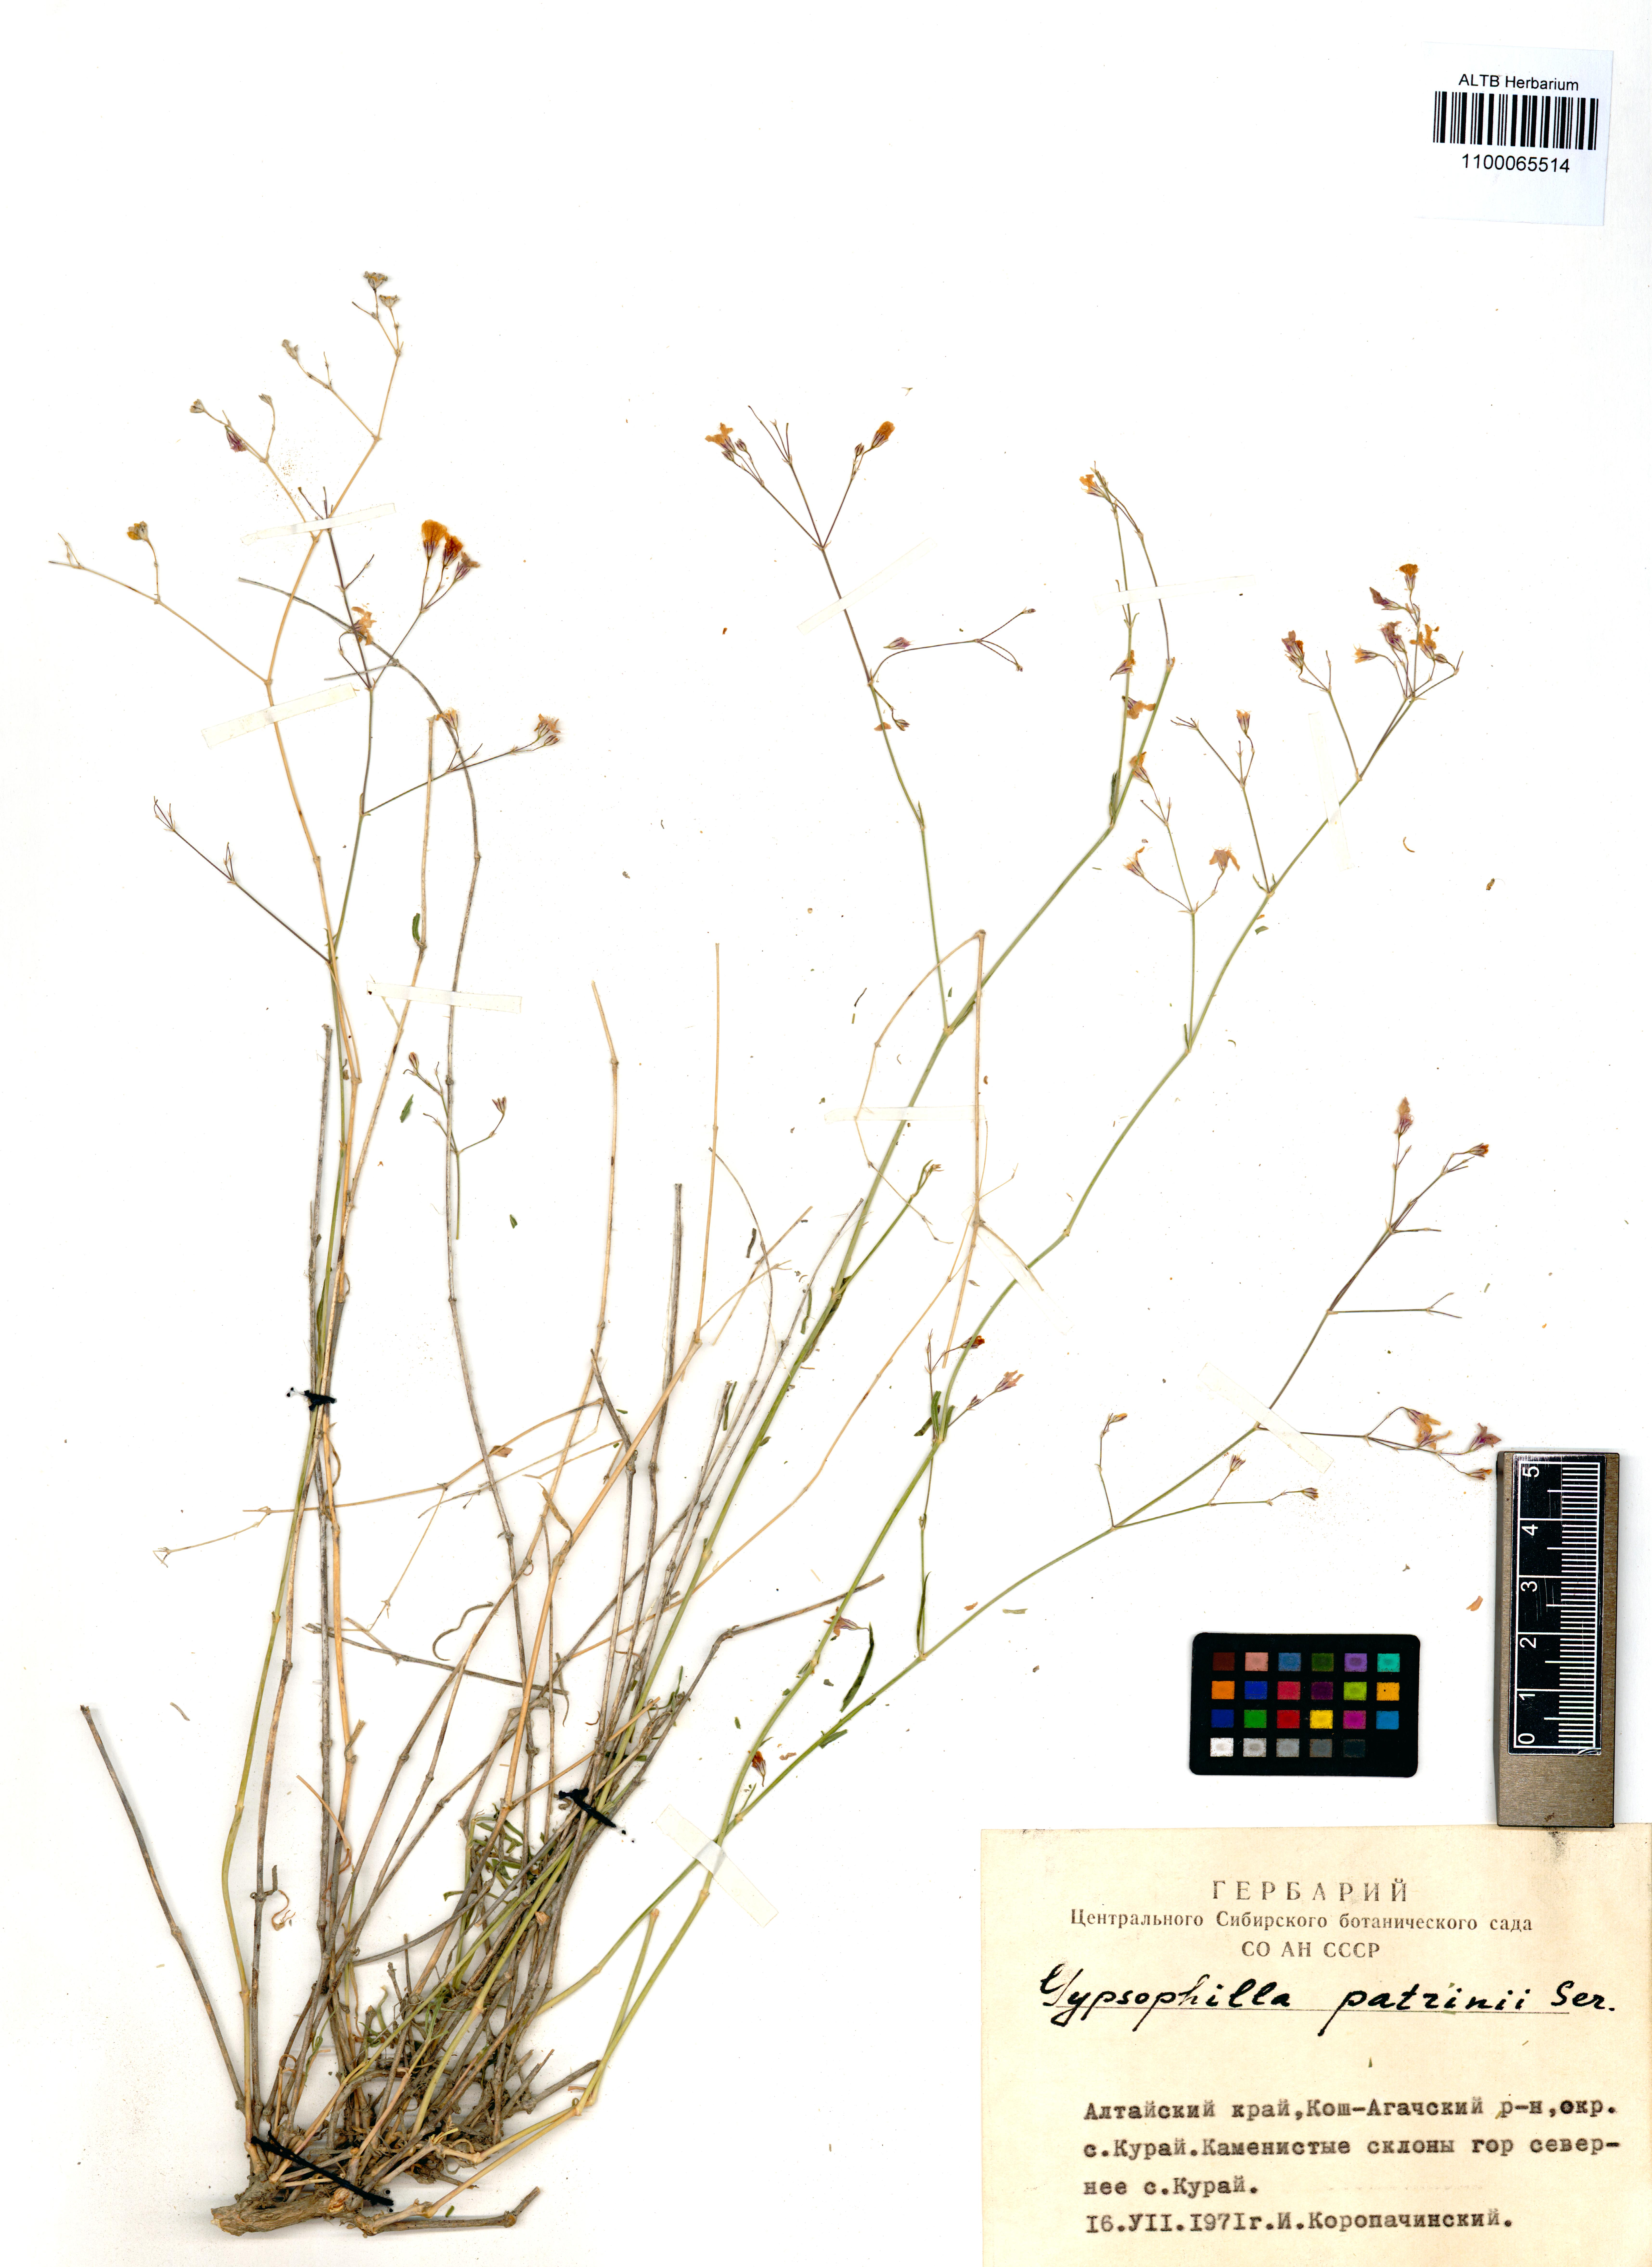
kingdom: Plantae
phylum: Tracheophyta
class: Magnoliopsida
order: Caryophyllales
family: Caryophyllaceae
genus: Gypsophila
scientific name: Gypsophila patrinii
